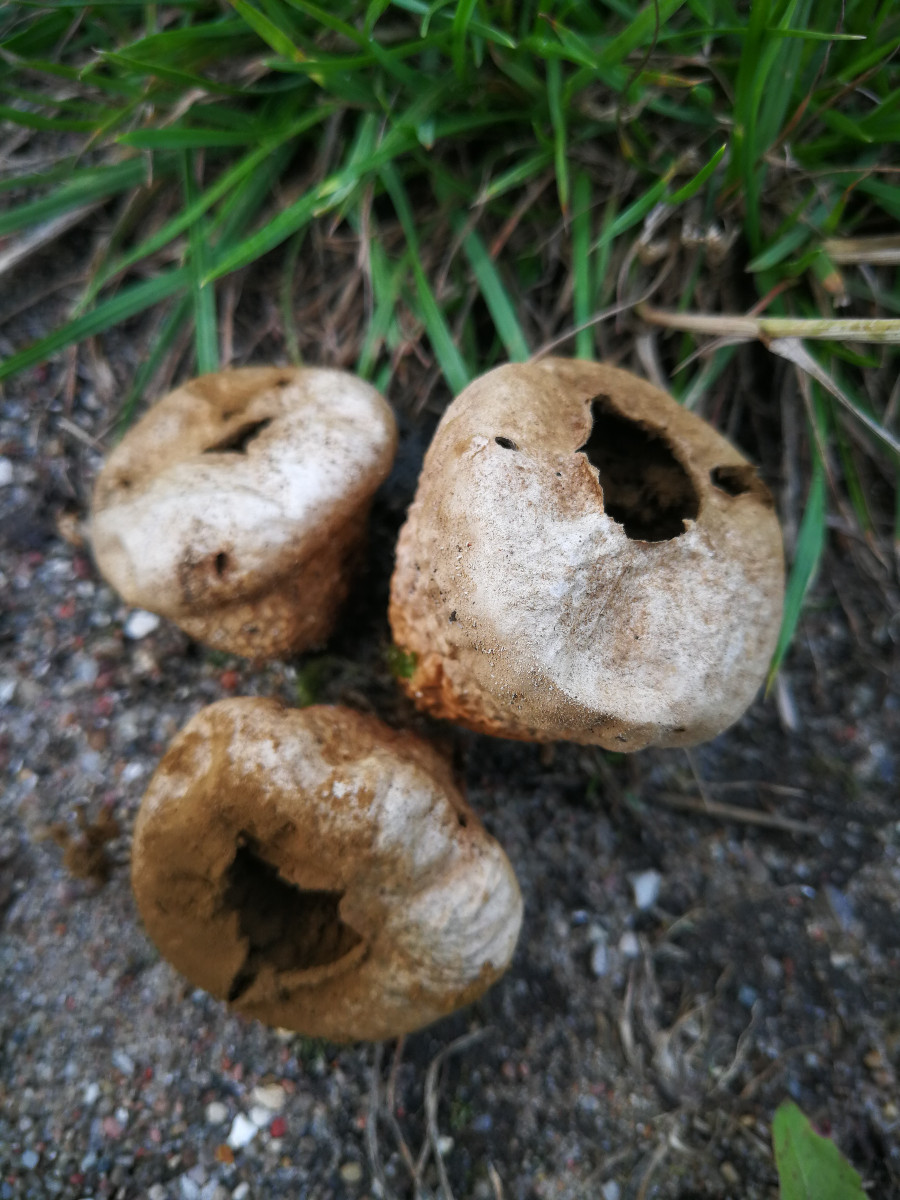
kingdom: Fungi
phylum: Basidiomycota
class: Agaricomycetes
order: Agaricales
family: Lycoperdaceae
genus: Lycoperdon
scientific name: Lycoperdon pratense
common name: flad støvbold
